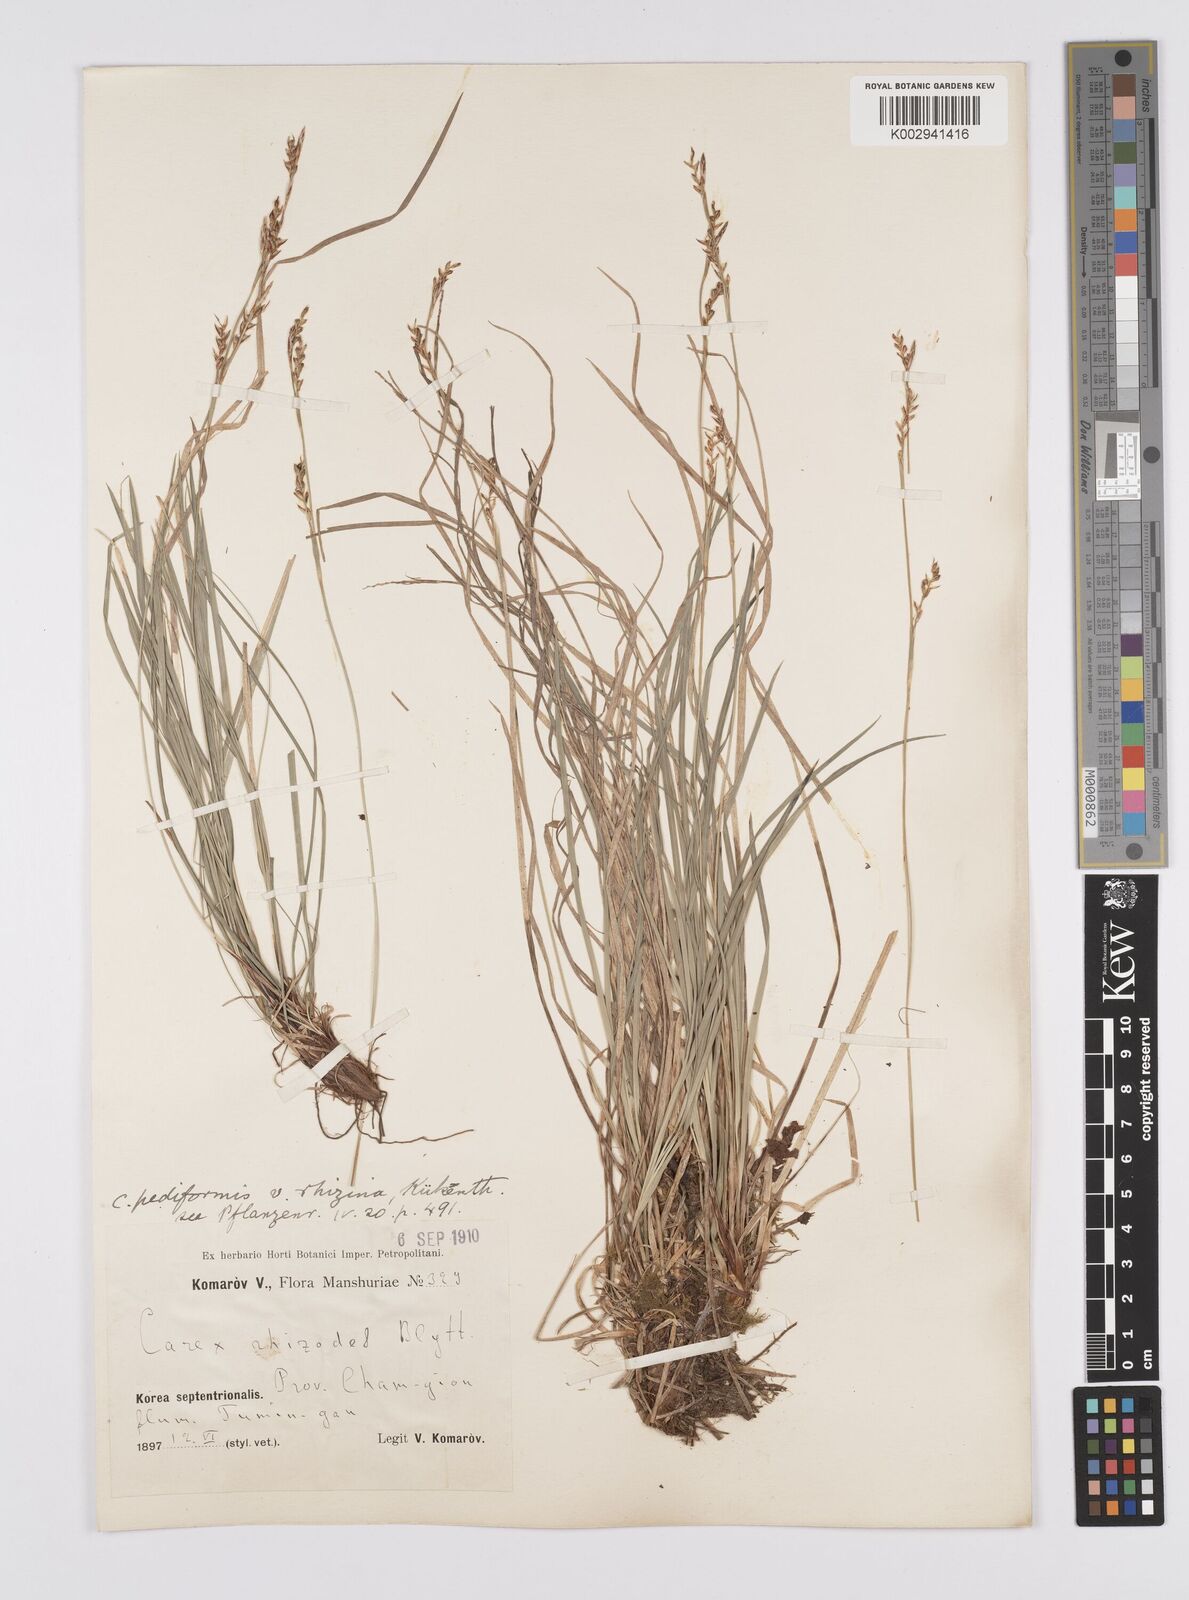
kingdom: Plantae
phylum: Tracheophyta
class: Liliopsida
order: Poales
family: Cyperaceae
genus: Carex
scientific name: Carex pediformis
